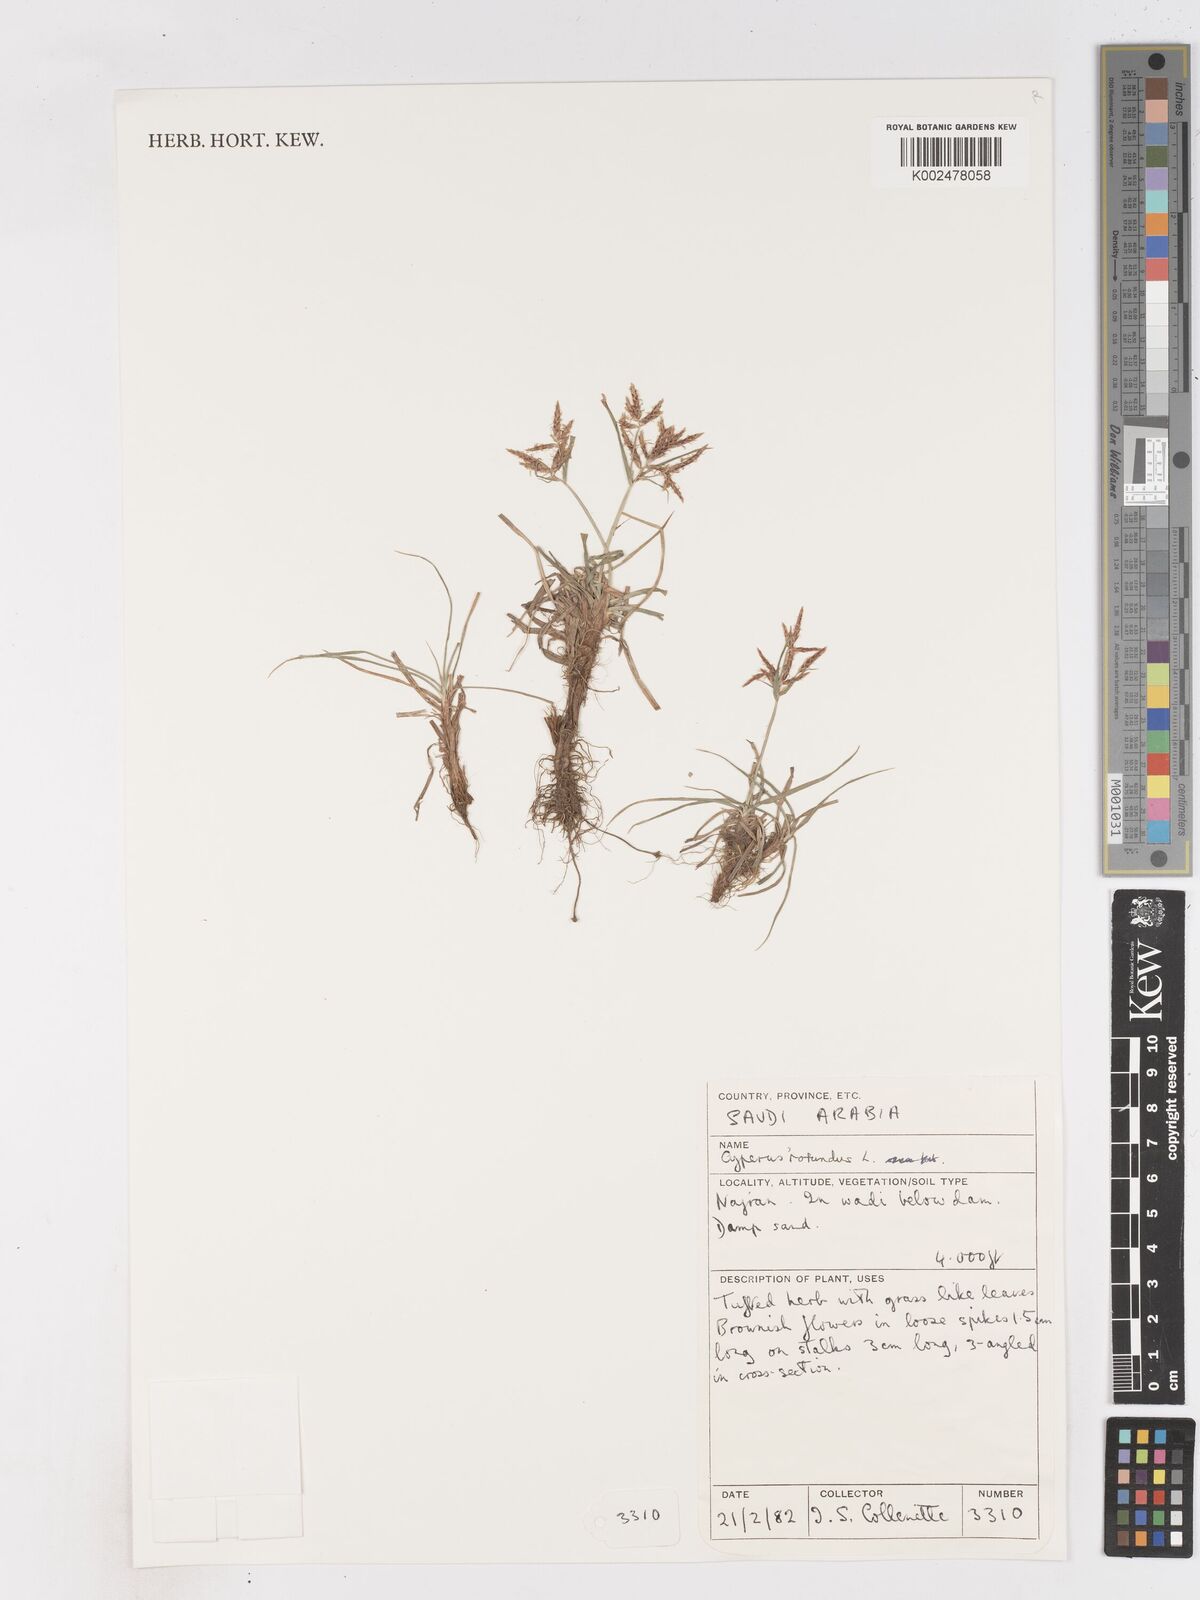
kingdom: Plantae
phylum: Tracheophyta
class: Liliopsida
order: Poales
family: Cyperaceae
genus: Cyperus
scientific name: Cyperus rotundus
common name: Nutgrass
